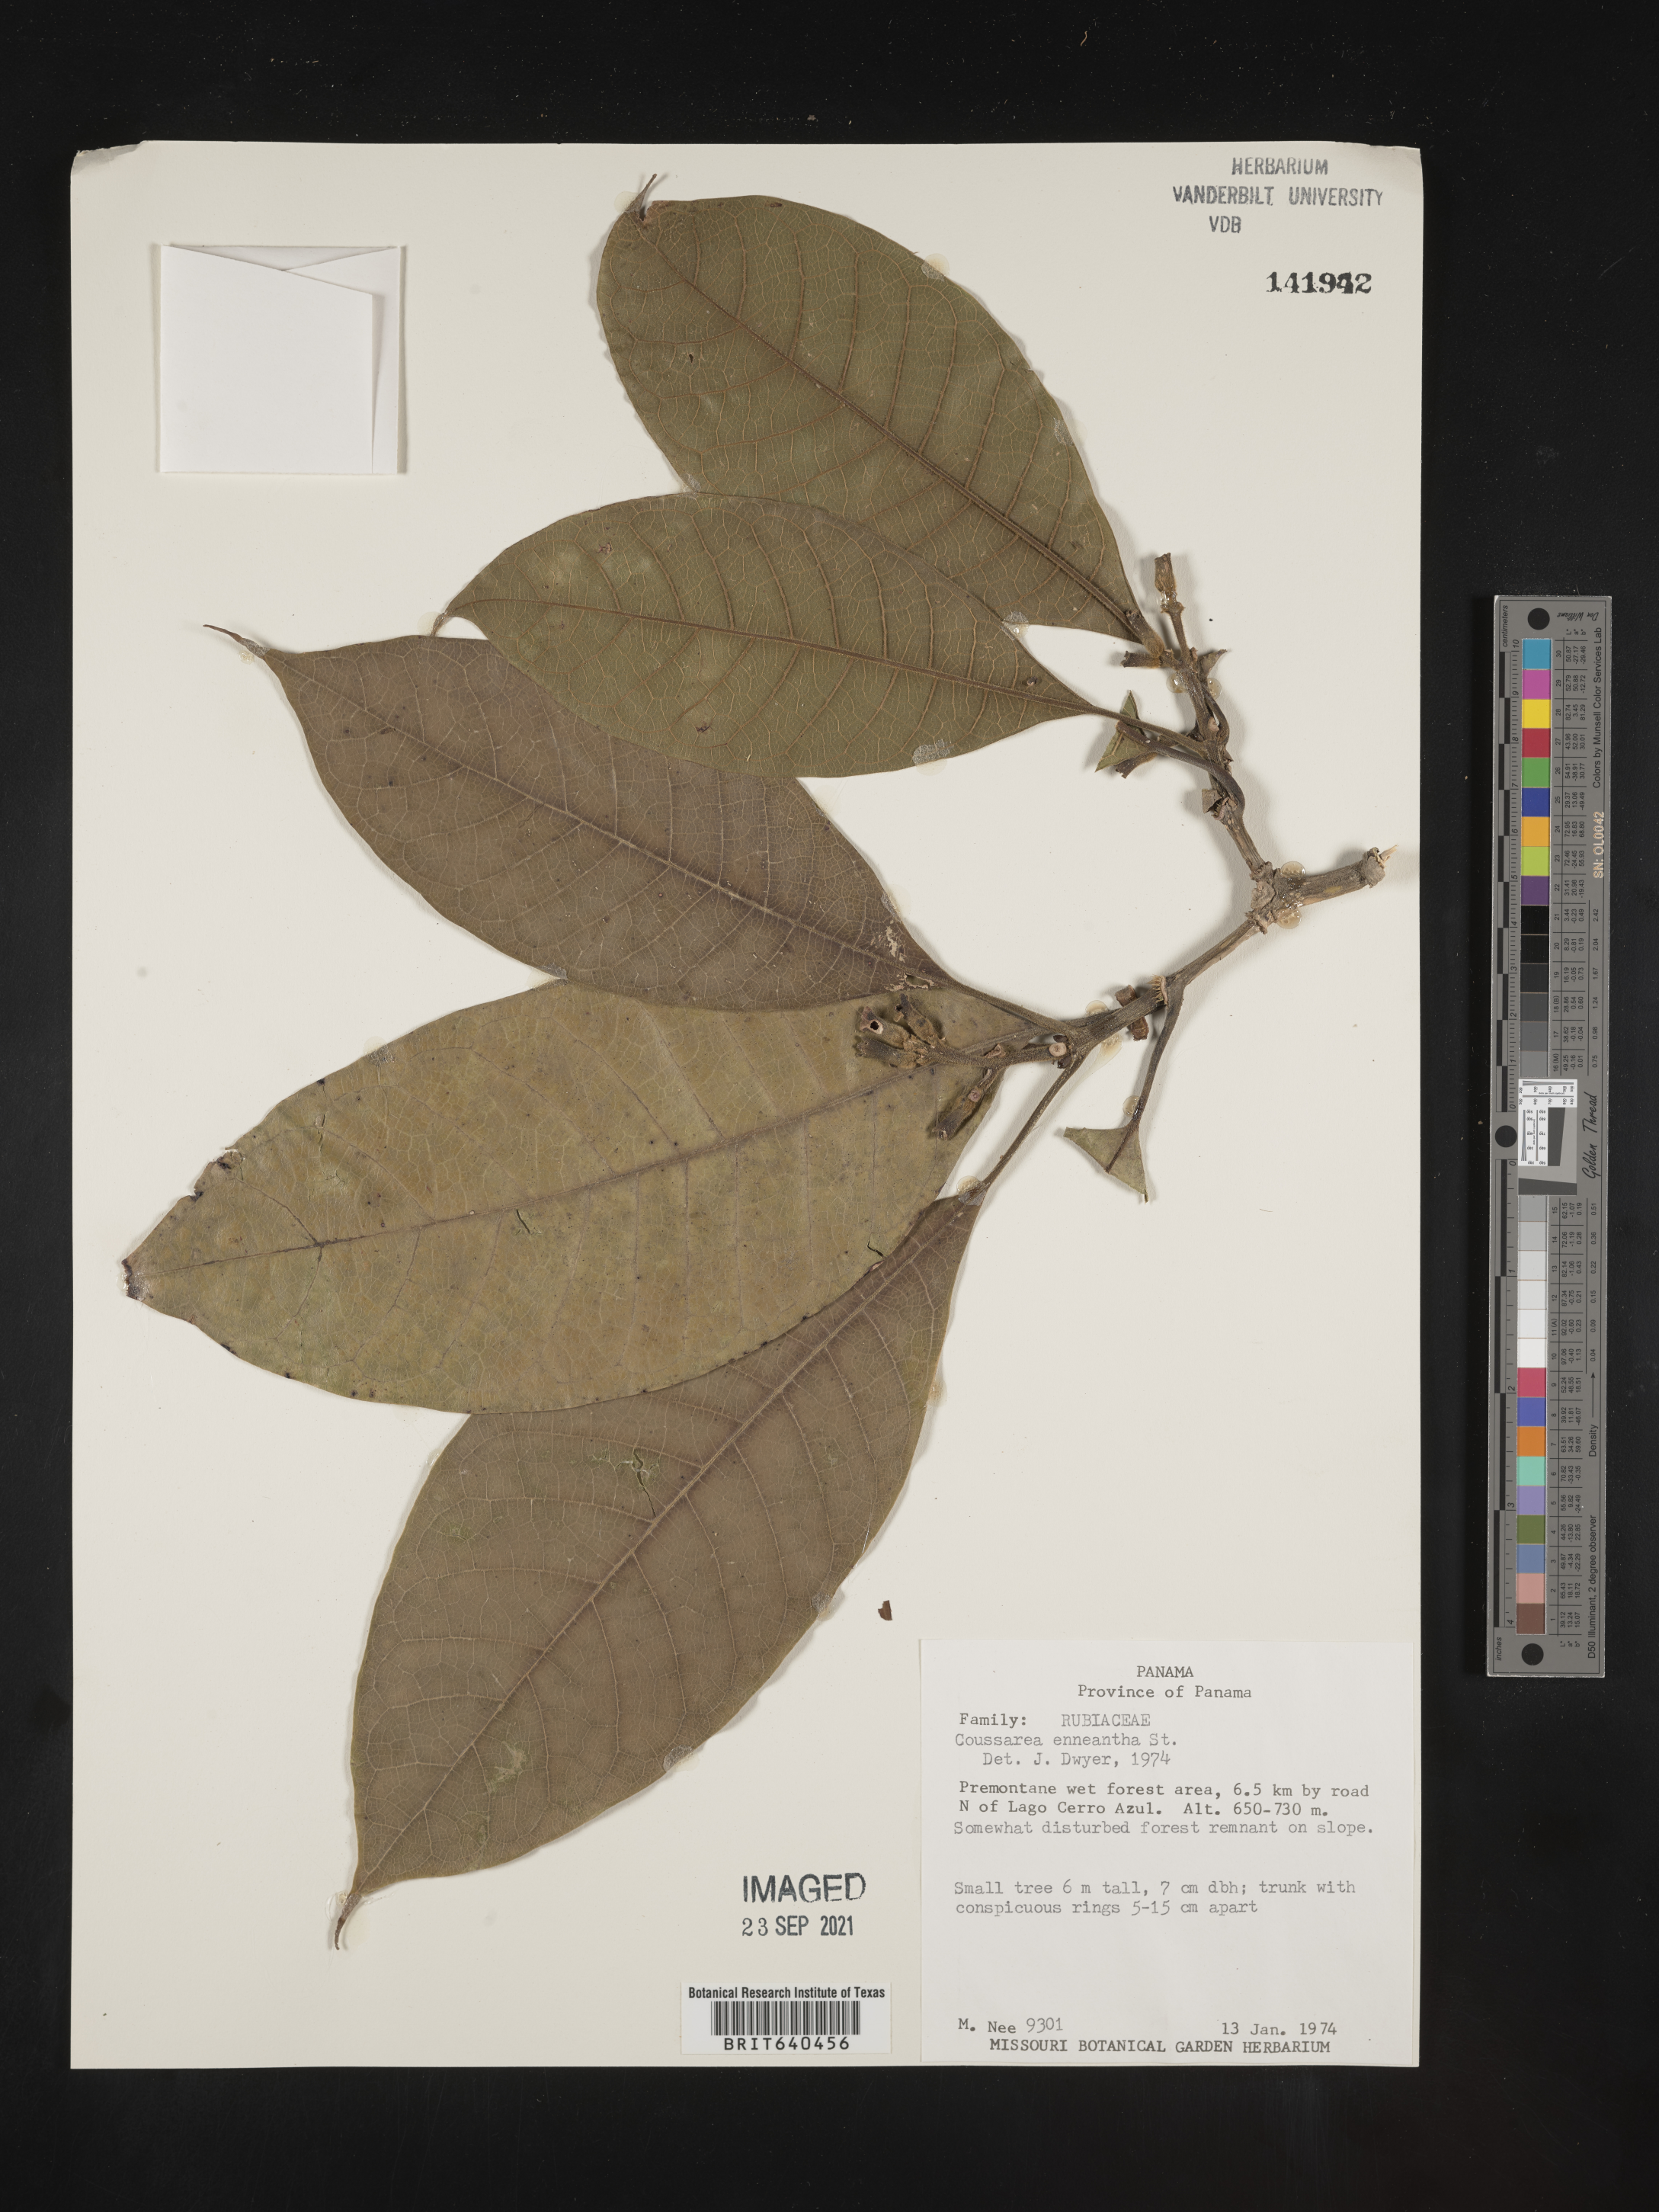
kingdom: Plantae
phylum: Tracheophyta
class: Magnoliopsida
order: Gentianales
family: Rubiaceae
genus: Coussarea
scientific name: Coussarea
